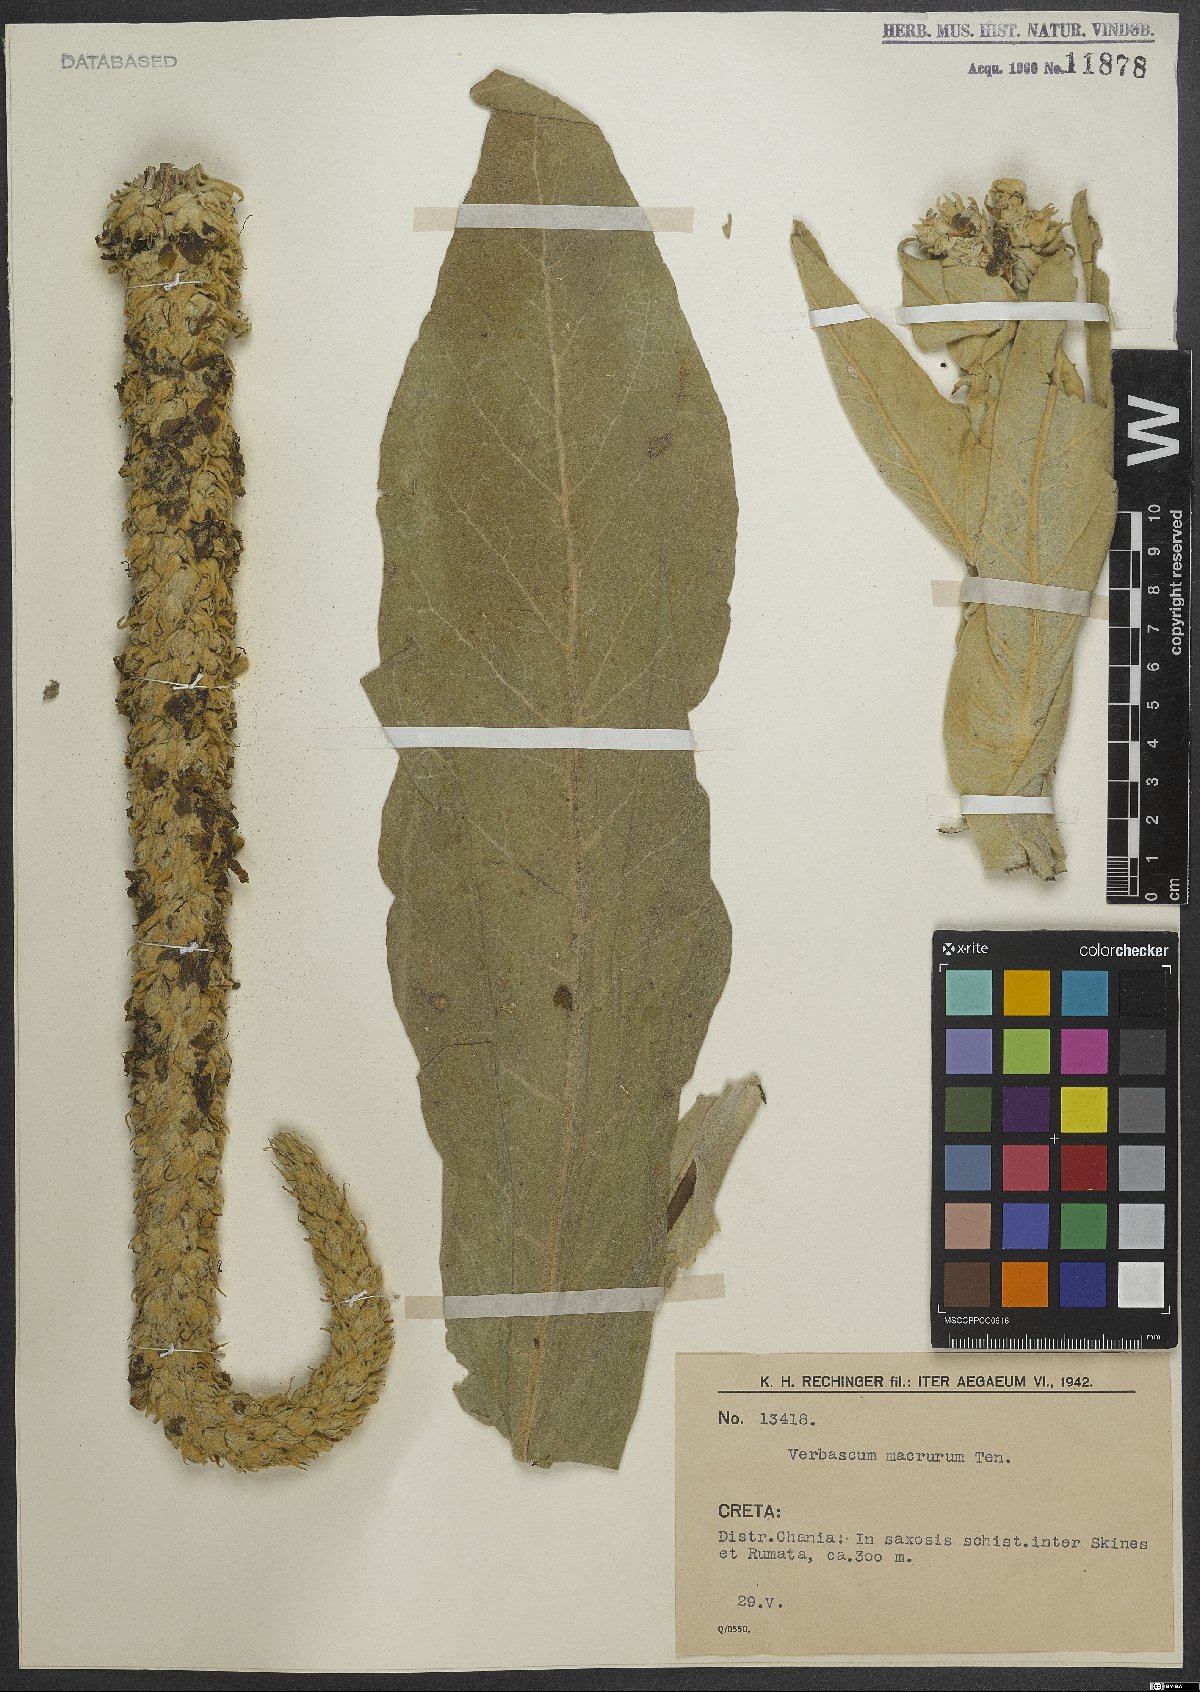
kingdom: Plantae
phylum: Tracheophyta
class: Magnoliopsida
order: Lamiales
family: Scrophulariaceae
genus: Verbascum
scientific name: Verbascum macrurum
